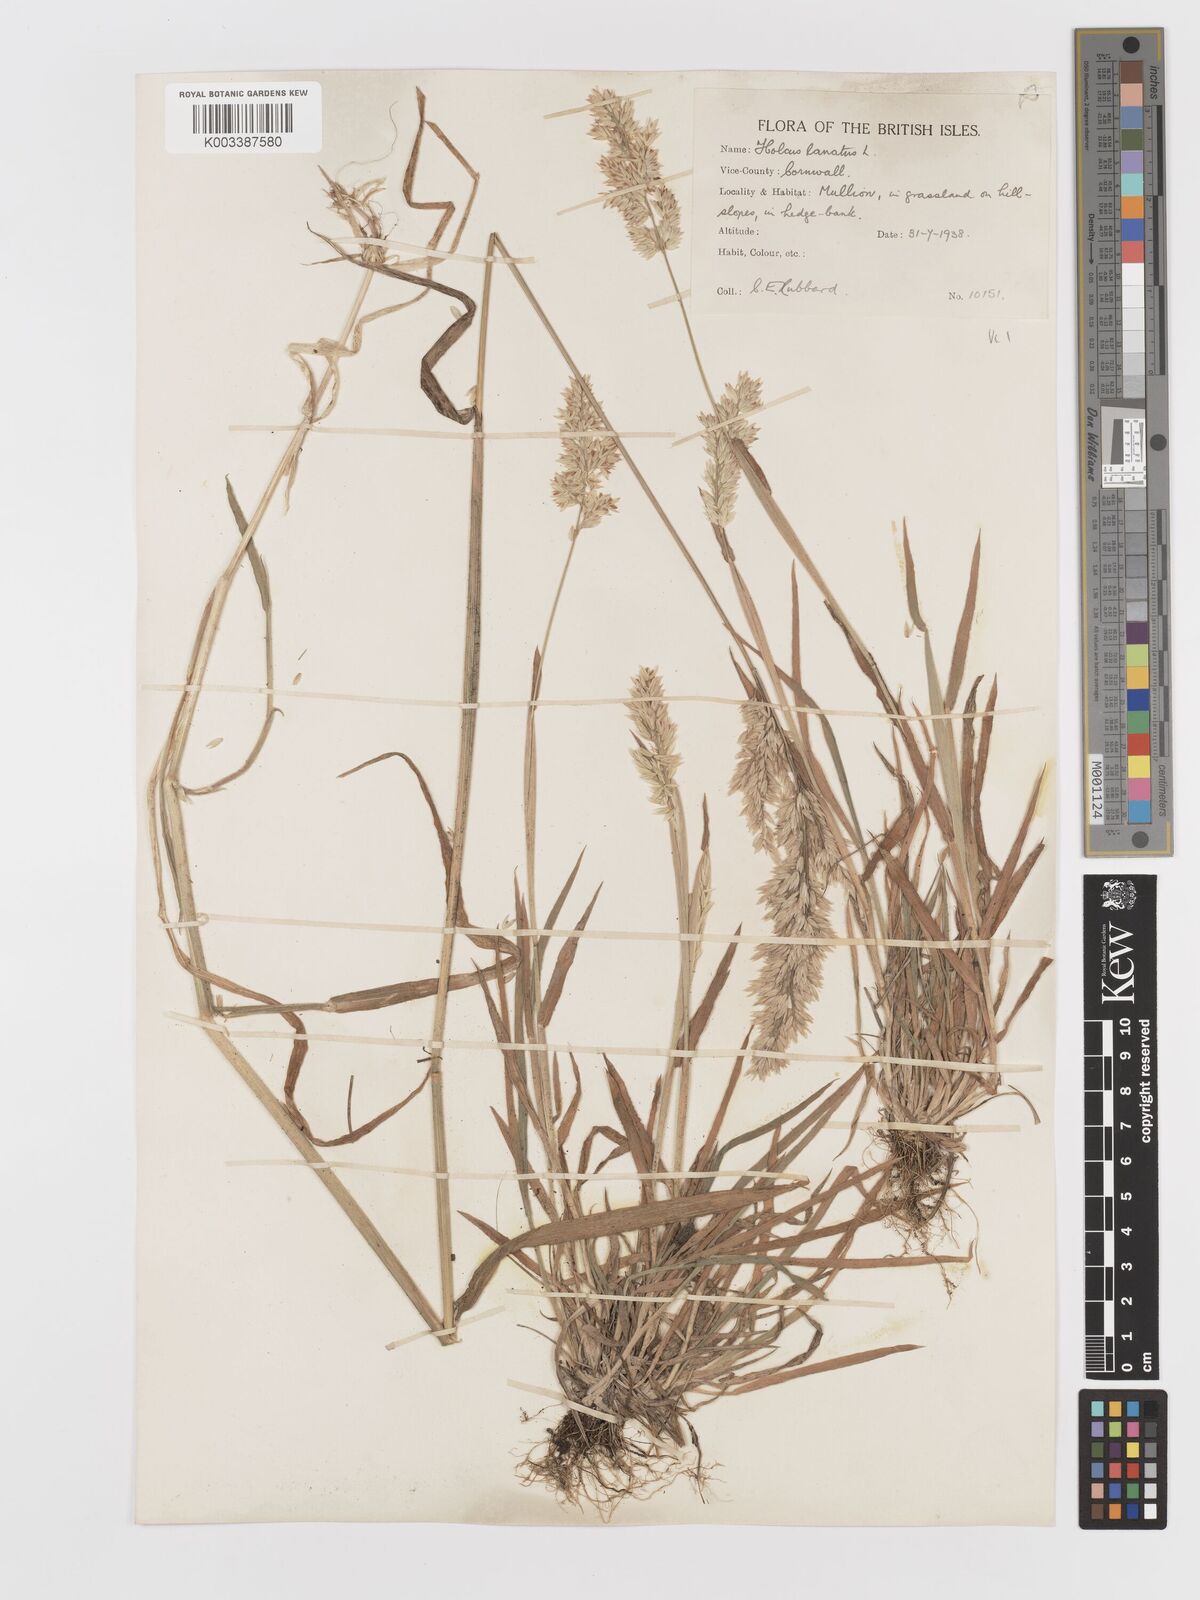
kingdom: Plantae
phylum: Tracheophyta
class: Liliopsida
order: Poales
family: Poaceae
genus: Holcus
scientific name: Holcus lanatus
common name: Yorkshire-fog
